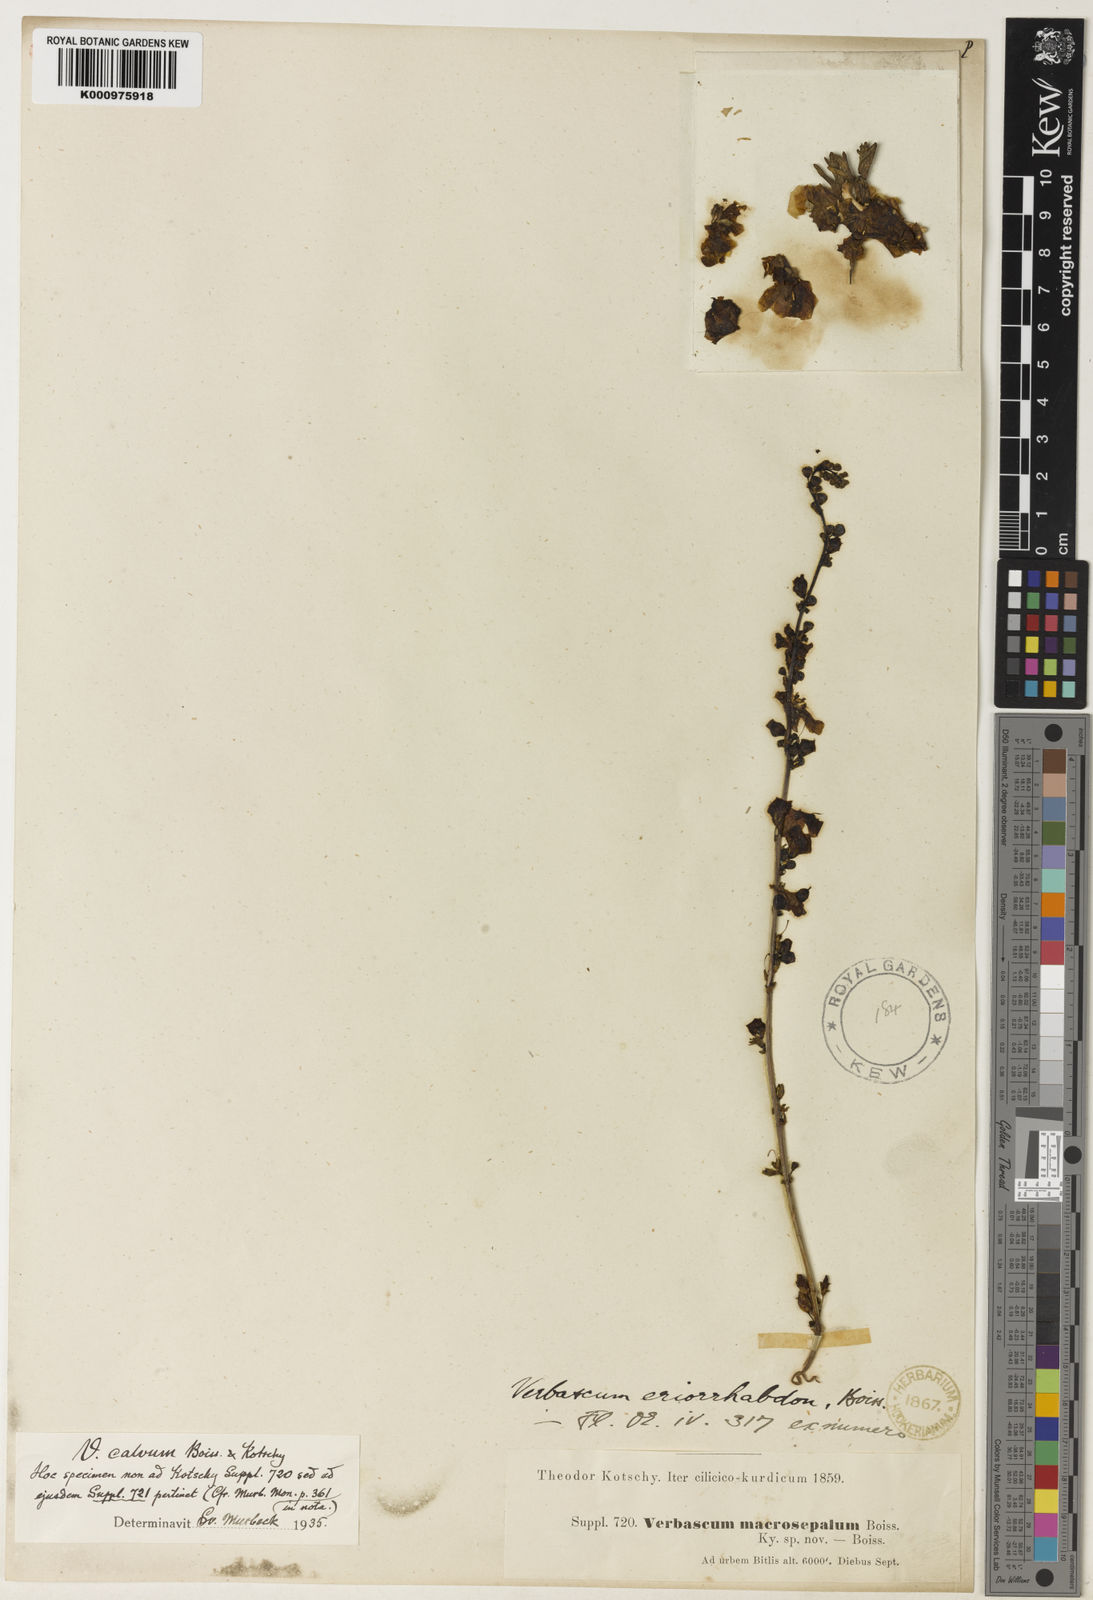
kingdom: Plantae
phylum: Tracheophyta
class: Magnoliopsida
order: Lamiales
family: Scrophulariaceae
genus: Verbascum
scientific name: Verbascum
